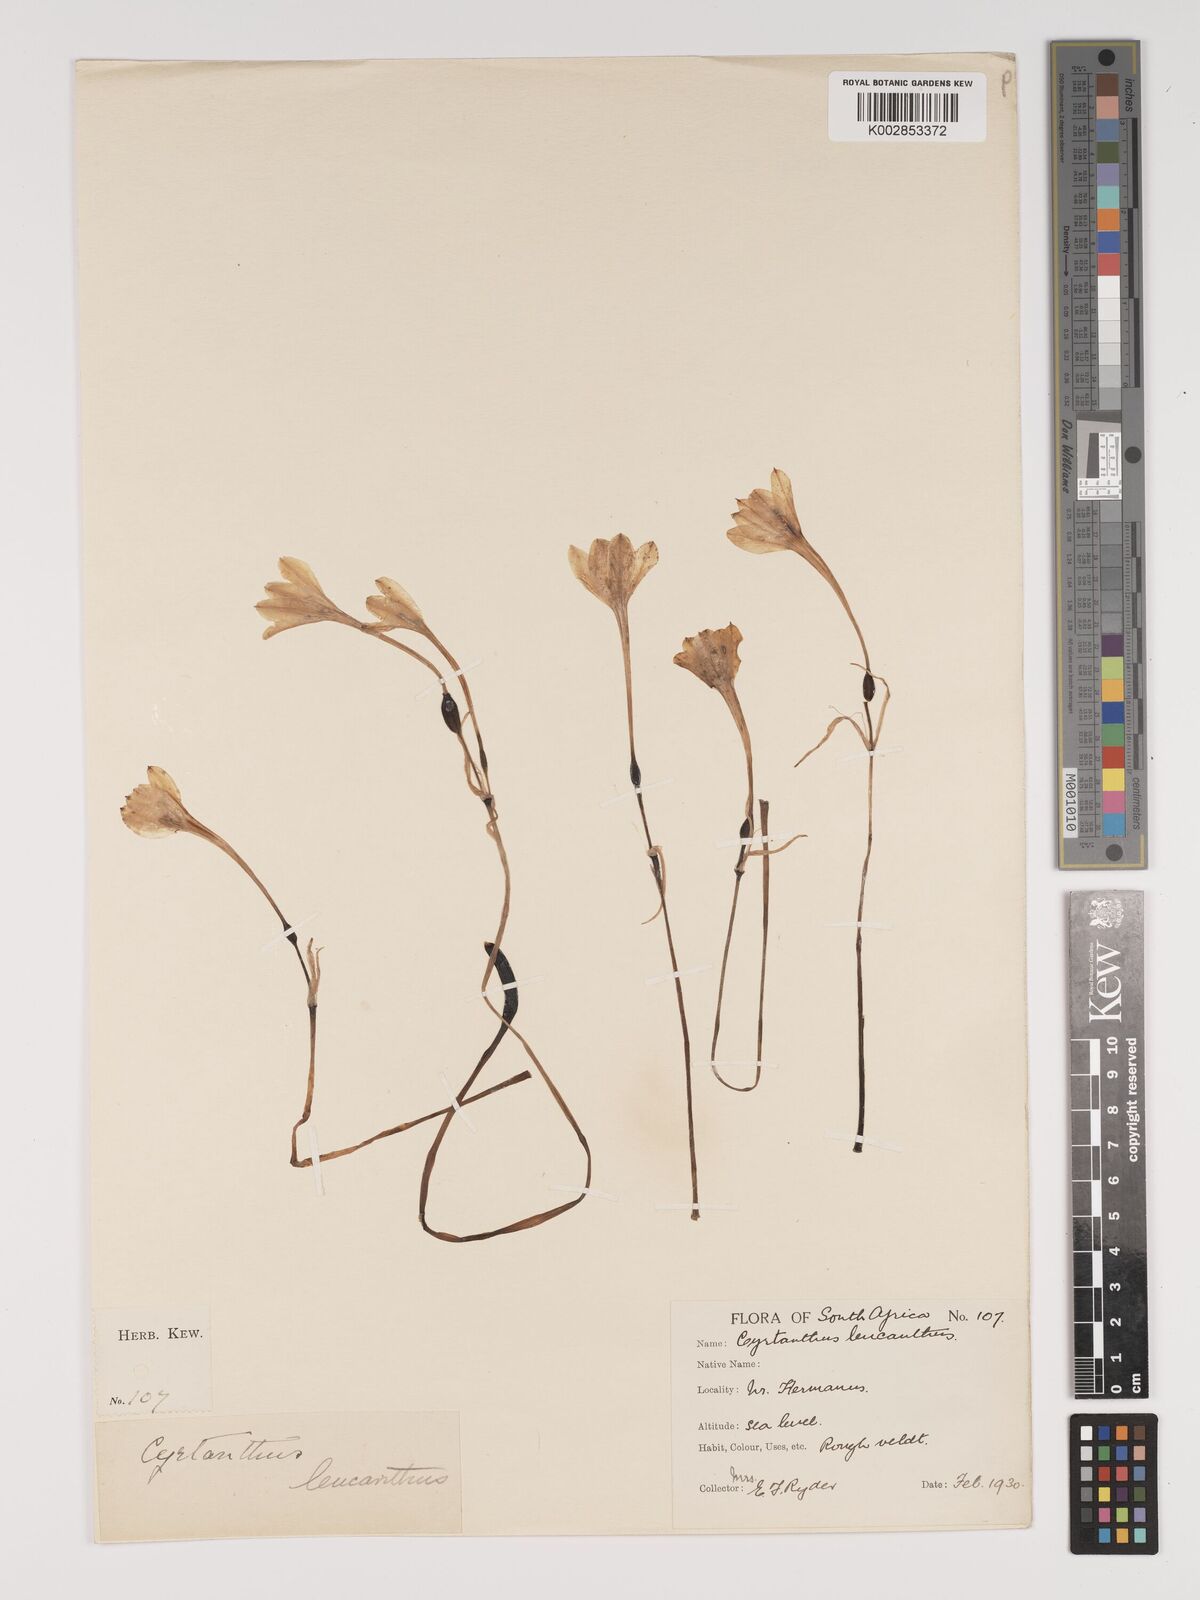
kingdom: Plantae
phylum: Tracheophyta
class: Liliopsida
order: Asparagales
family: Amaryllidaceae
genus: Cyrtanthus
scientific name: Cyrtanthus leucanthus
